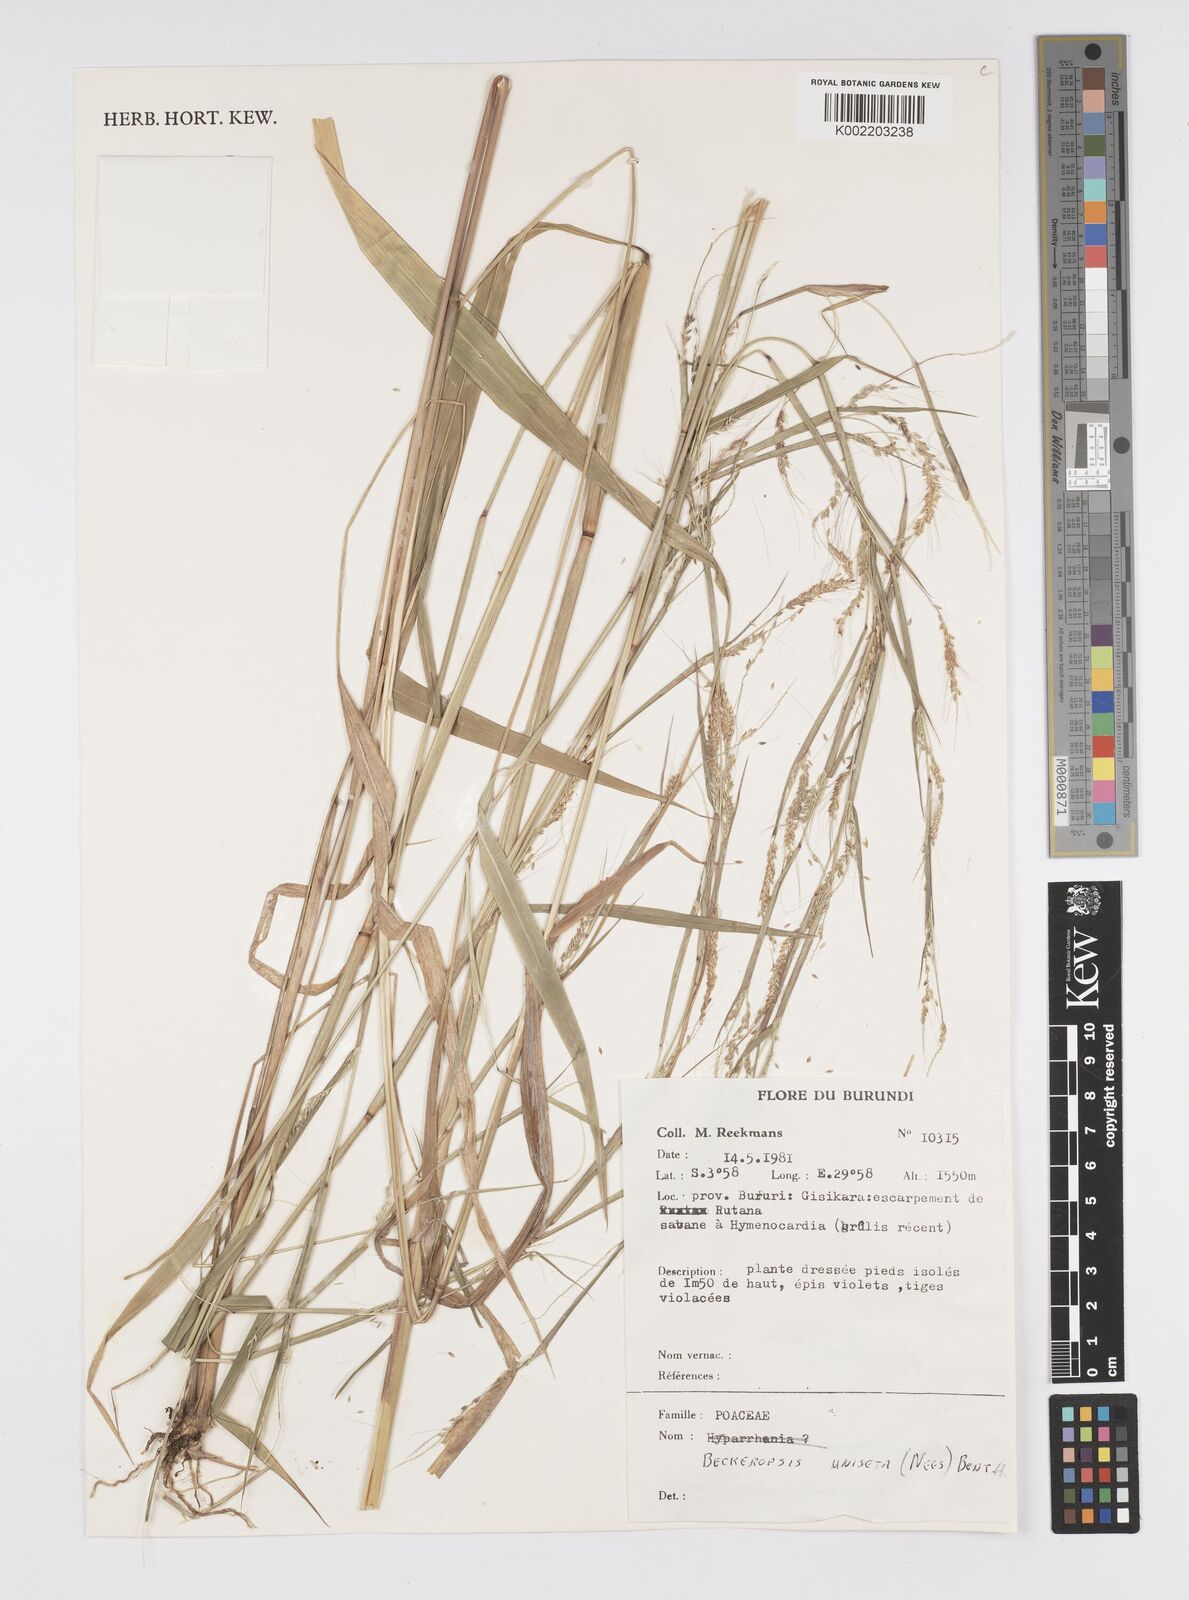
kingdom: Plantae
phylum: Tracheophyta
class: Liliopsida
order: Poales
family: Poaceae
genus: Cenchrus
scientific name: Cenchrus unisetus
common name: Natal grass
